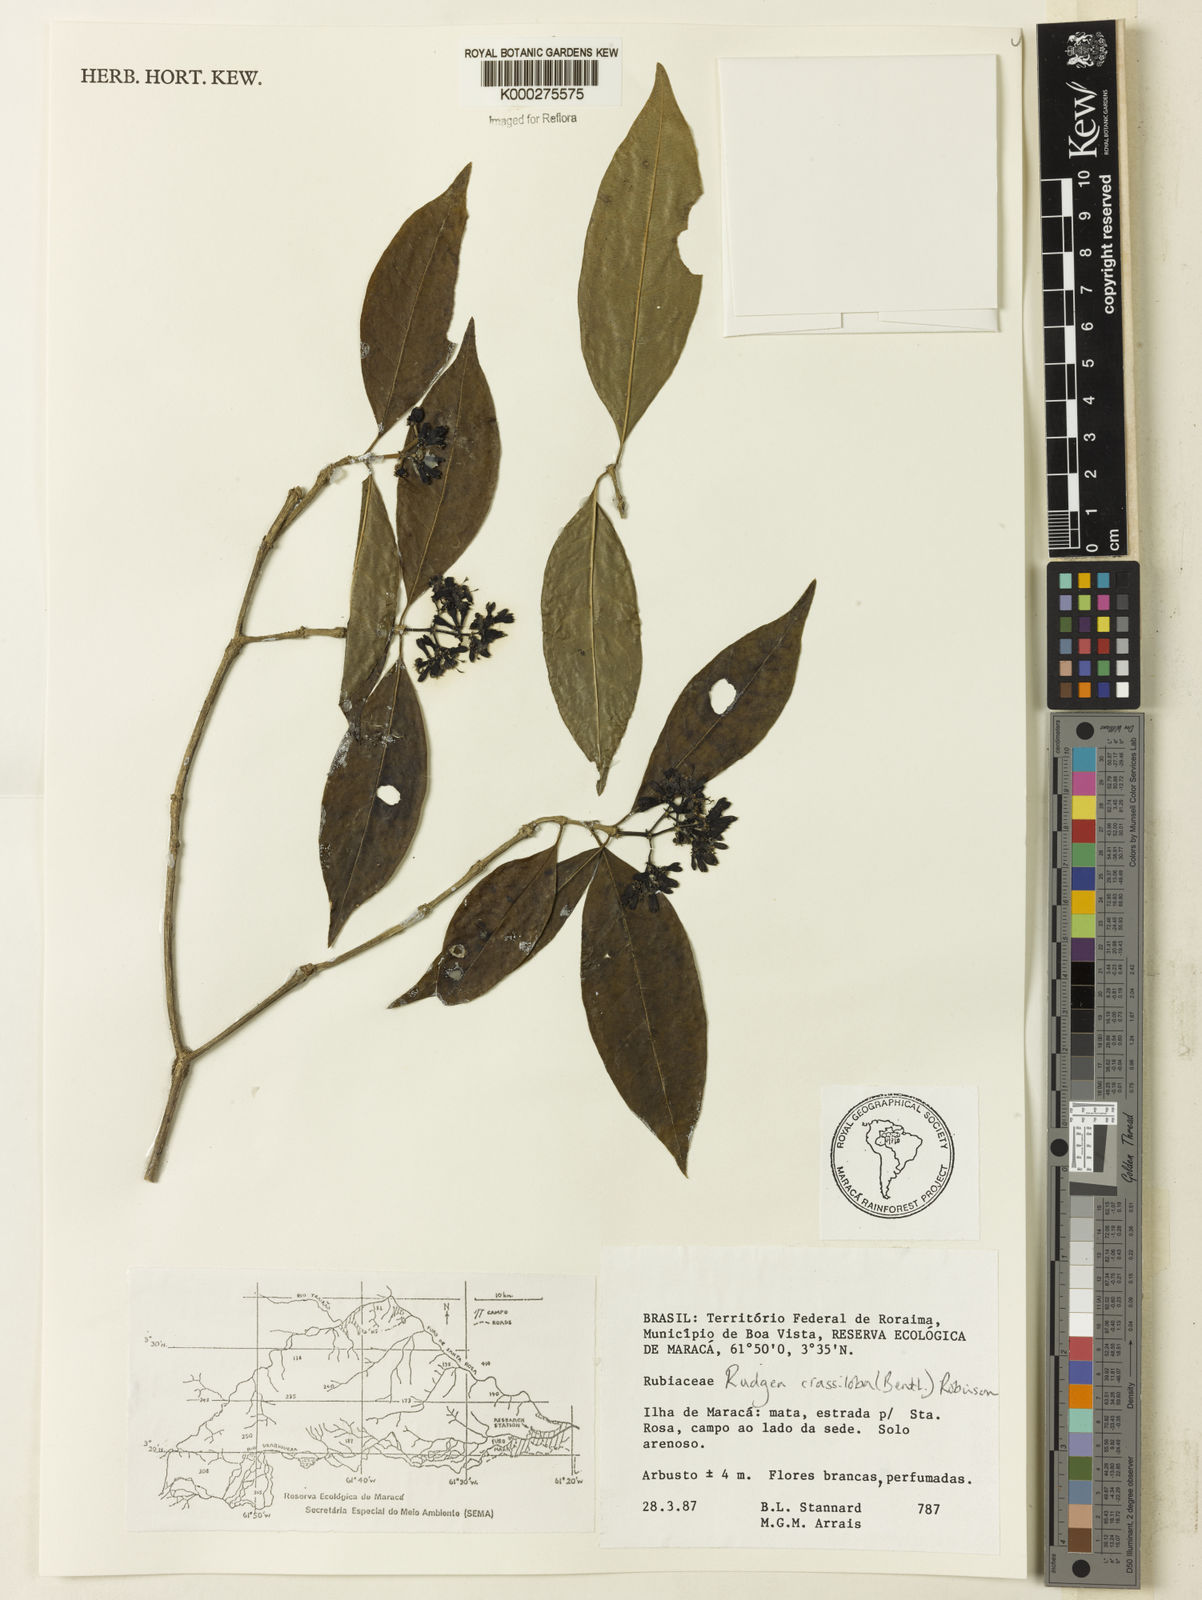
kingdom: Plantae
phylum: Tracheophyta
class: Magnoliopsida
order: Gentianales
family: Rubiaceae
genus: Rudgea
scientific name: Rudgea crassiloba
